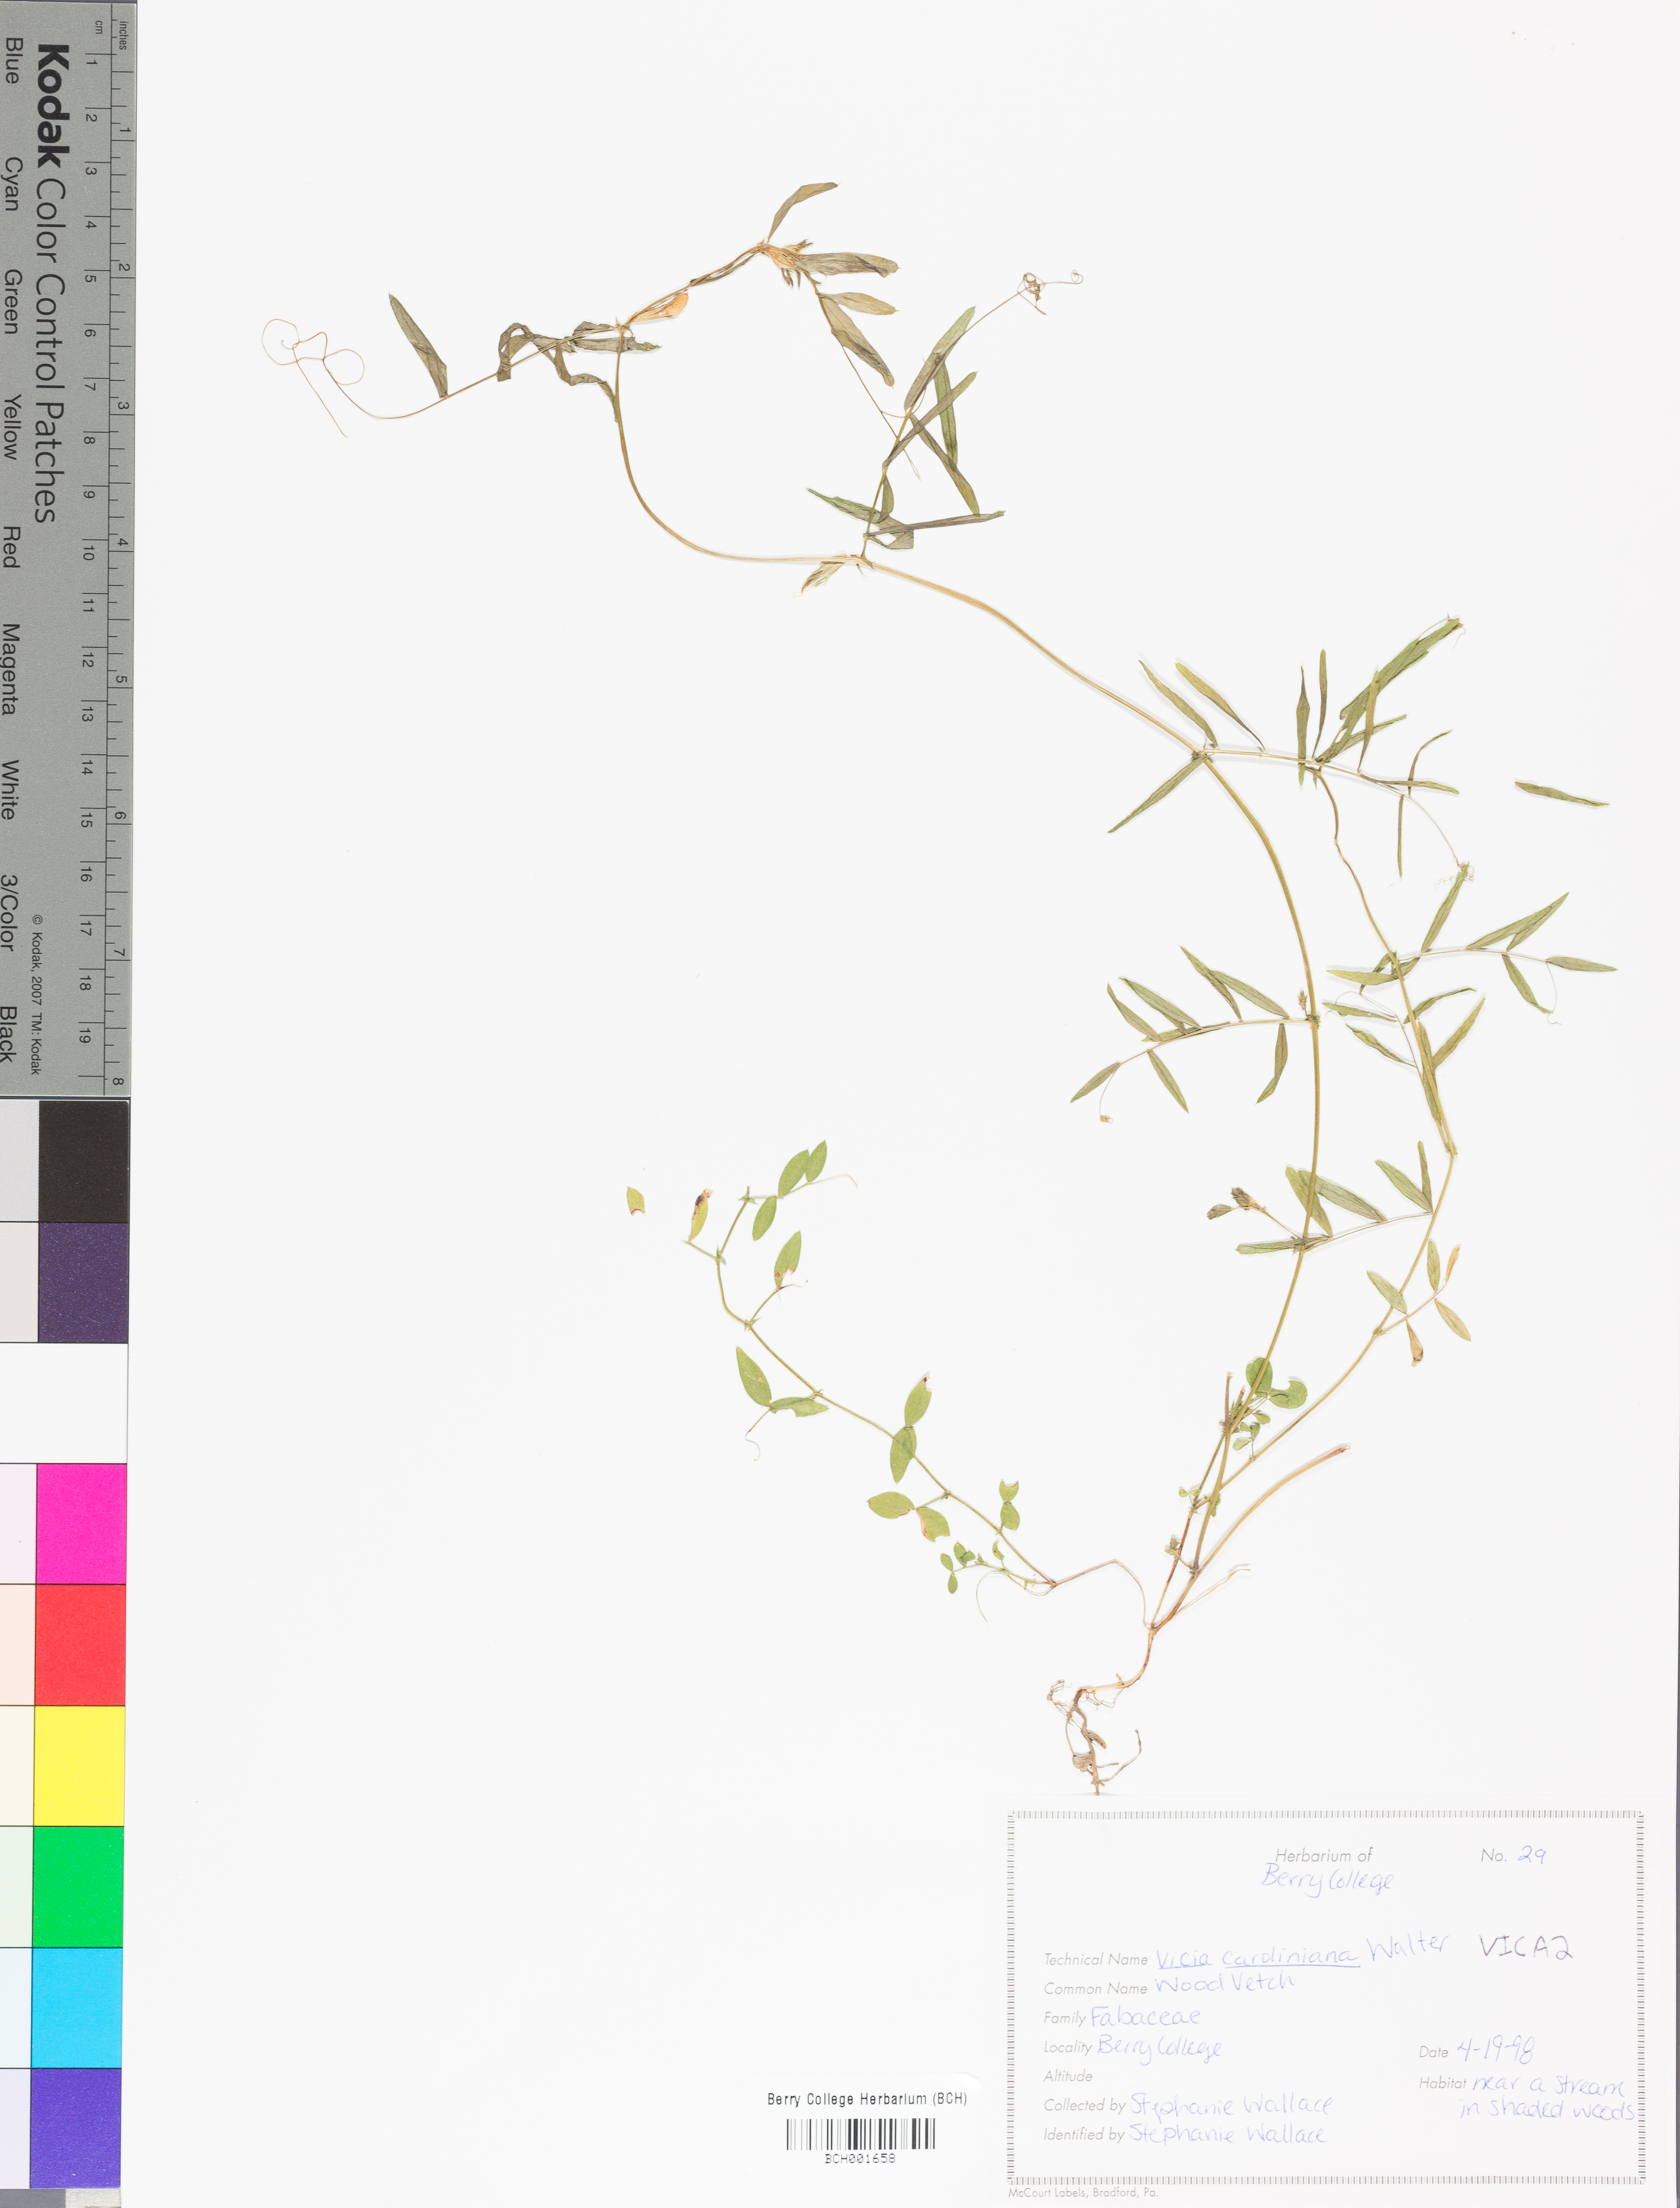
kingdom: Plantae
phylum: Tracheophyta
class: Magnoliopsida
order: Fabales
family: Fabaceae
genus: Vicia
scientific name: Vicia caroliniana
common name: Carolina vetch
